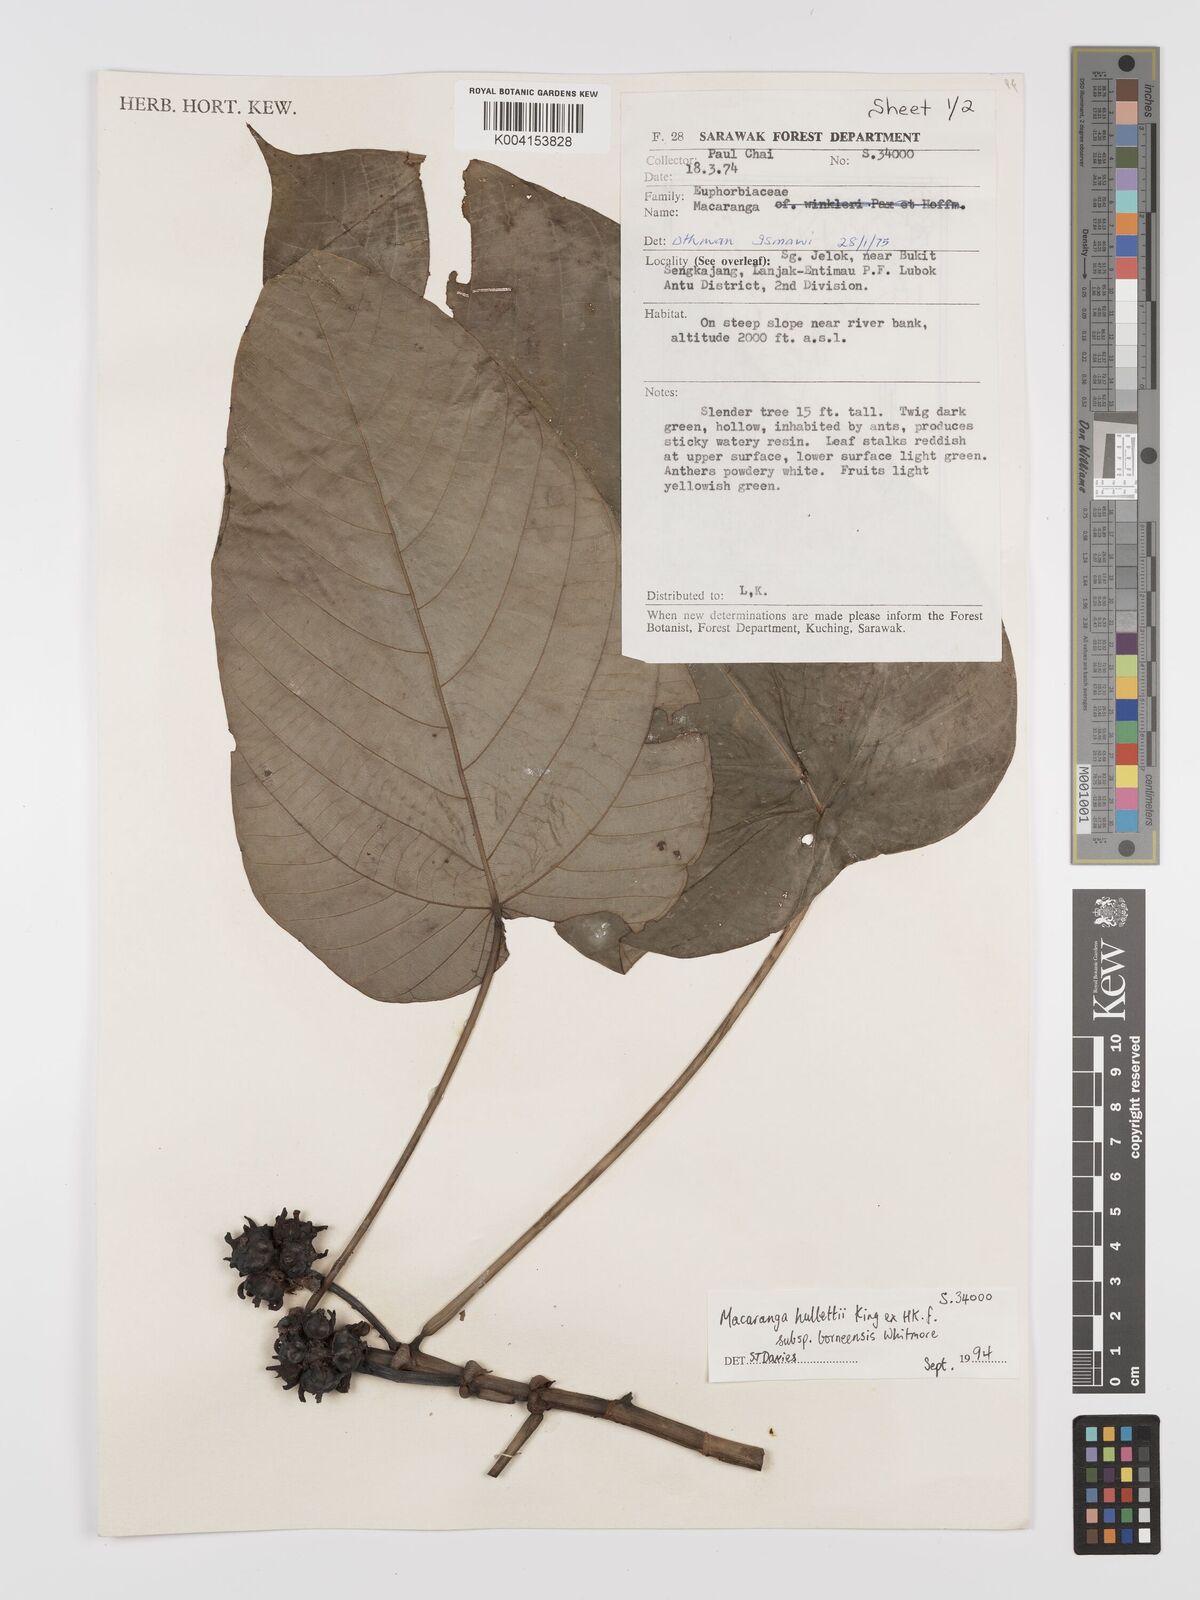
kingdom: Plantae
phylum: Tracheophyta
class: Magnoliopsida
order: Malpighiales
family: Euphorbiaceae
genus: Macaranga
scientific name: Macaranga hullettii
